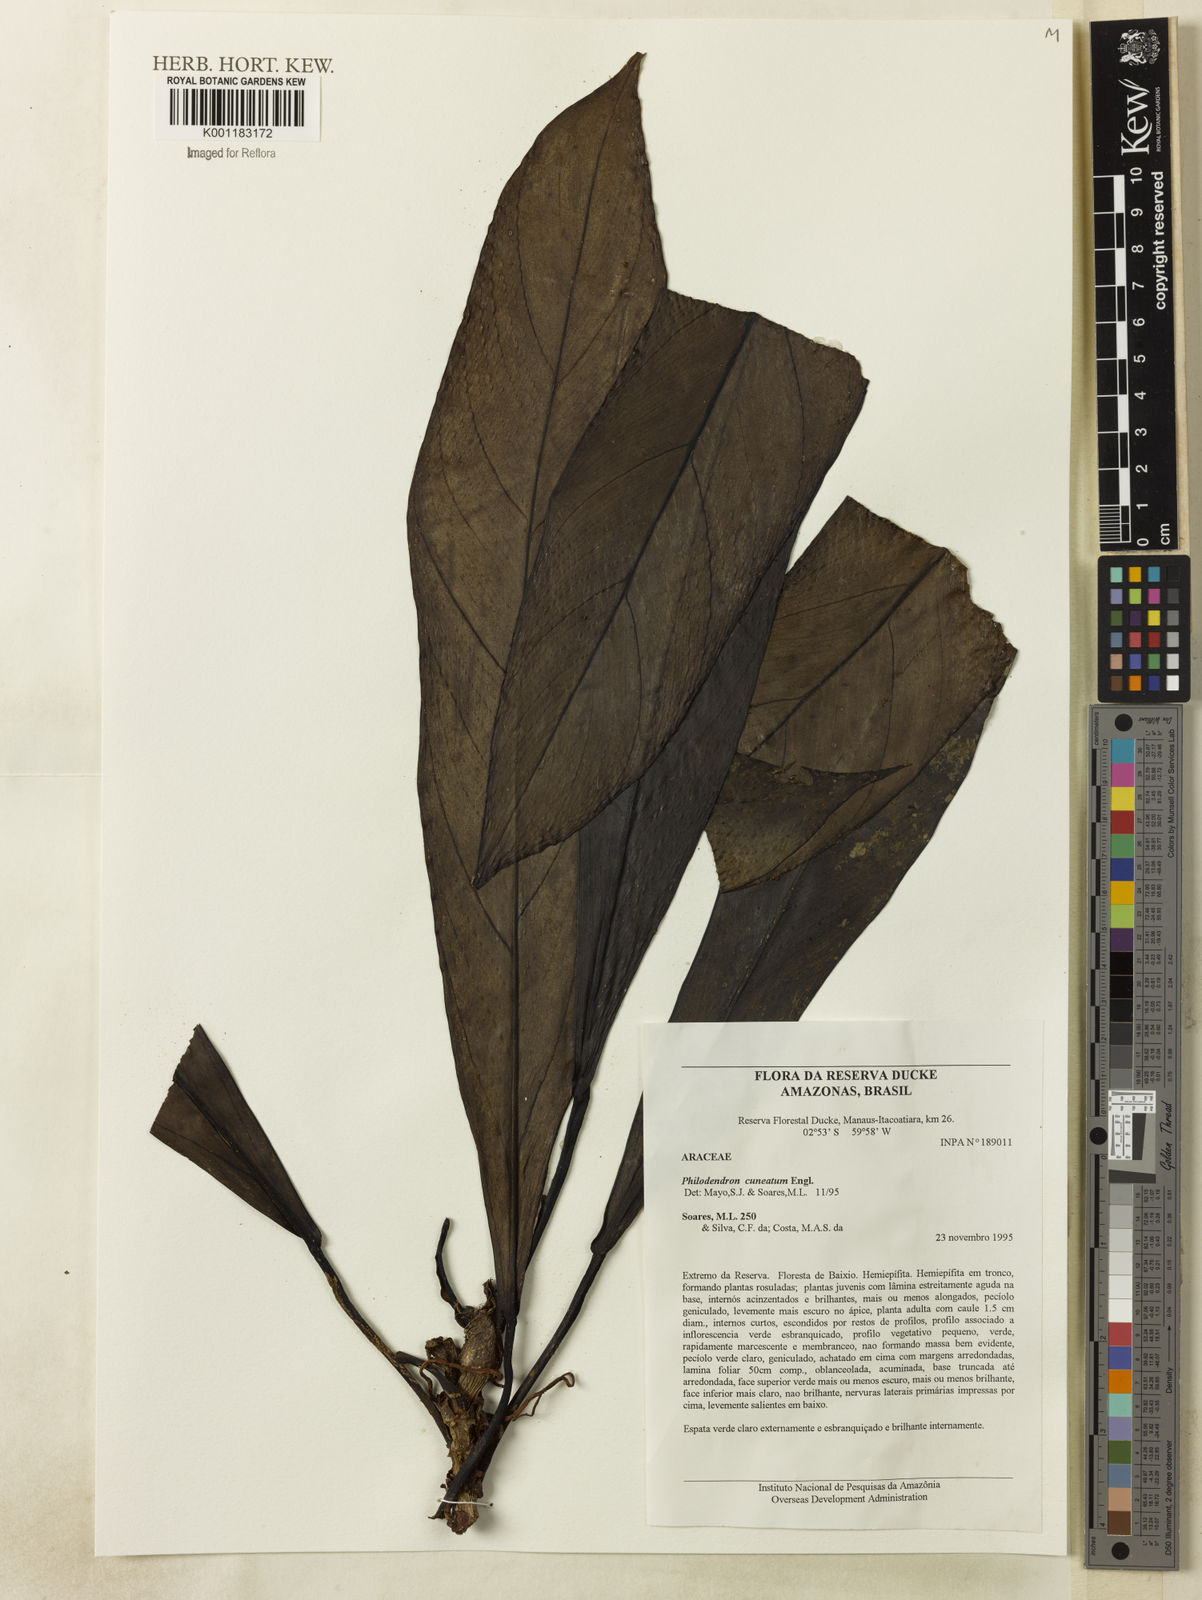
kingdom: Plantae
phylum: Tracheophyta
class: Liliopsida
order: Alismatales
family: Araceae
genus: Philodendron
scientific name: Philodendron cuneatum
